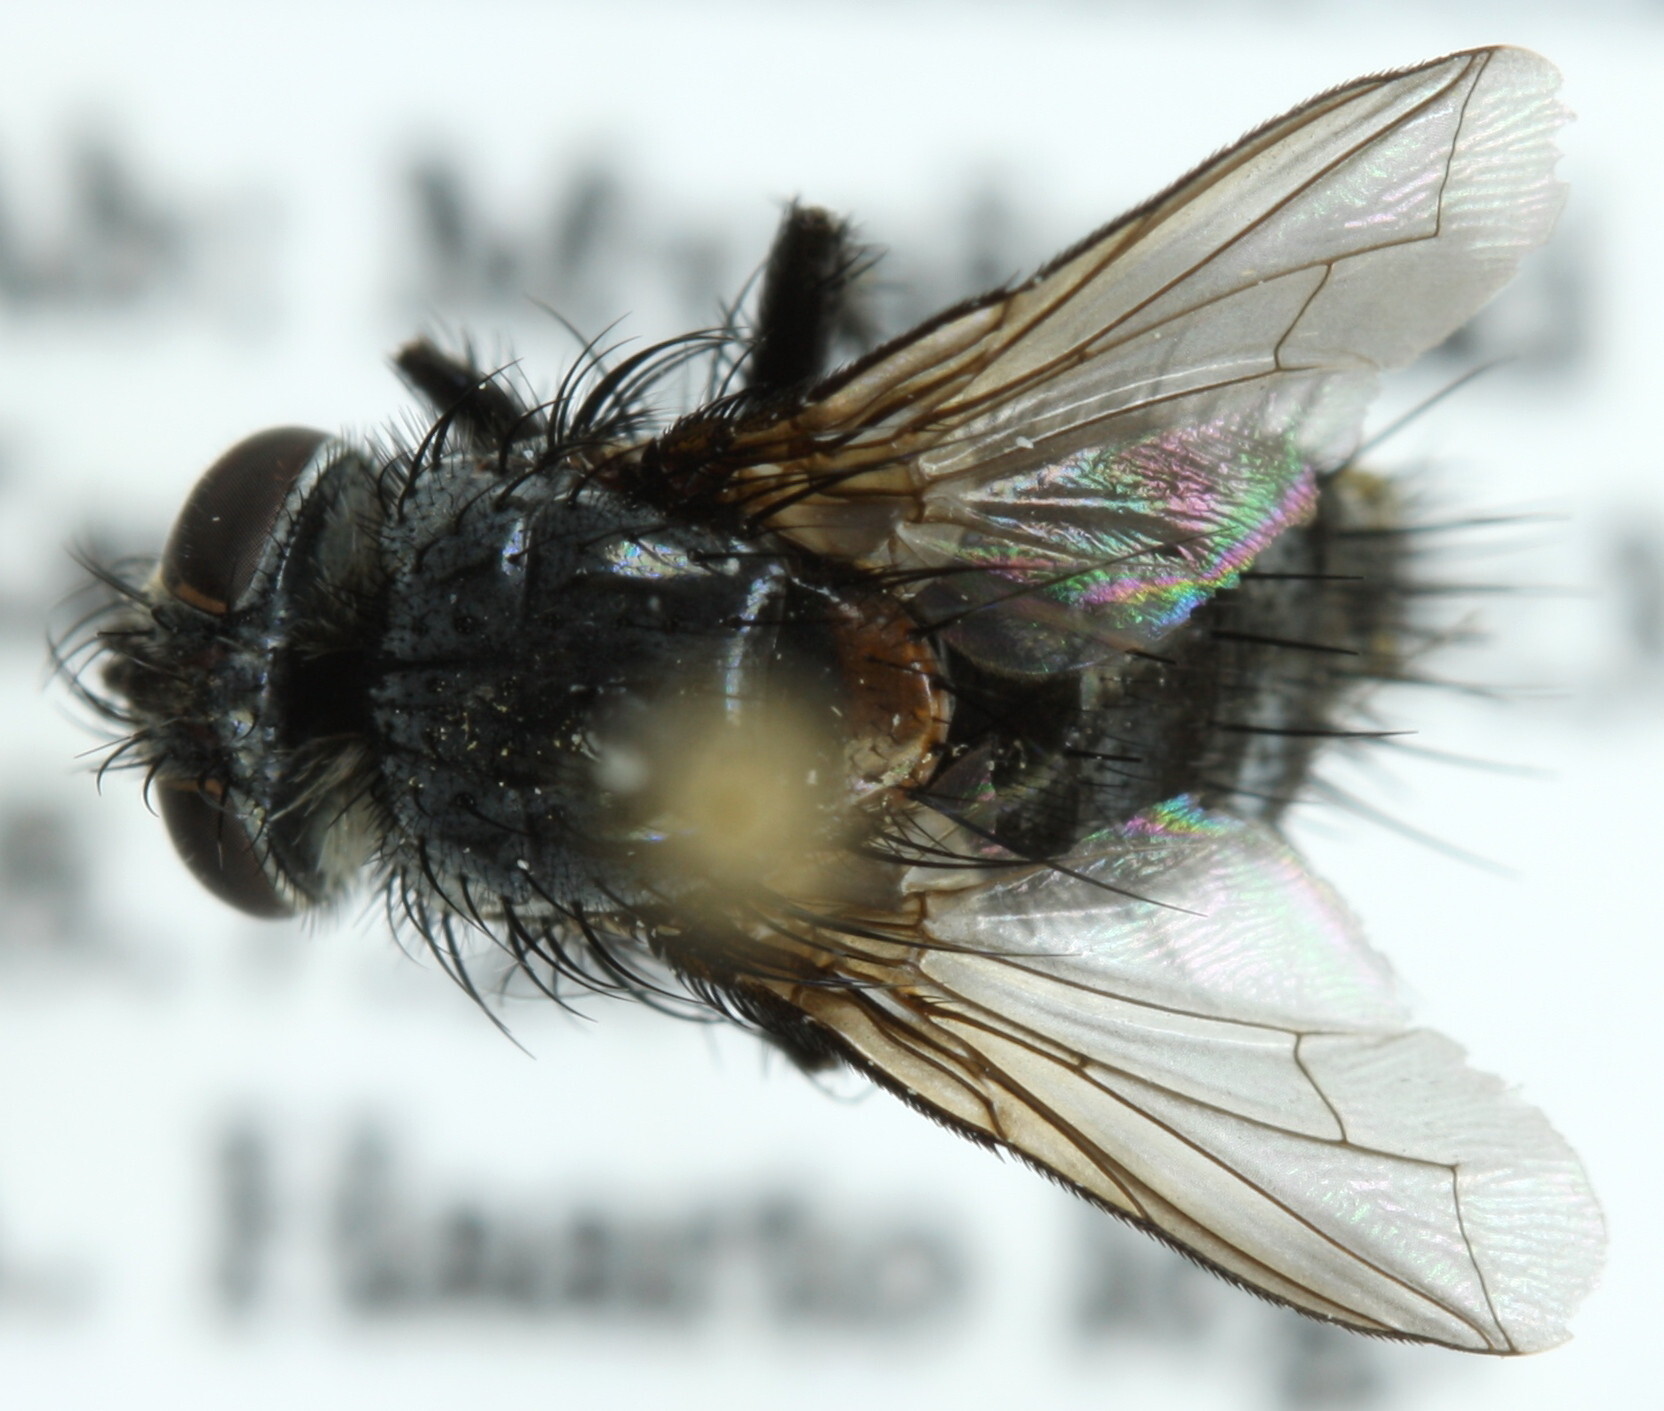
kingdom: Animalia
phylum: Arthropoda
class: Insecta
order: Diptera
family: Tachinidae
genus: Tlephusa
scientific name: Tlephusa cincinna
